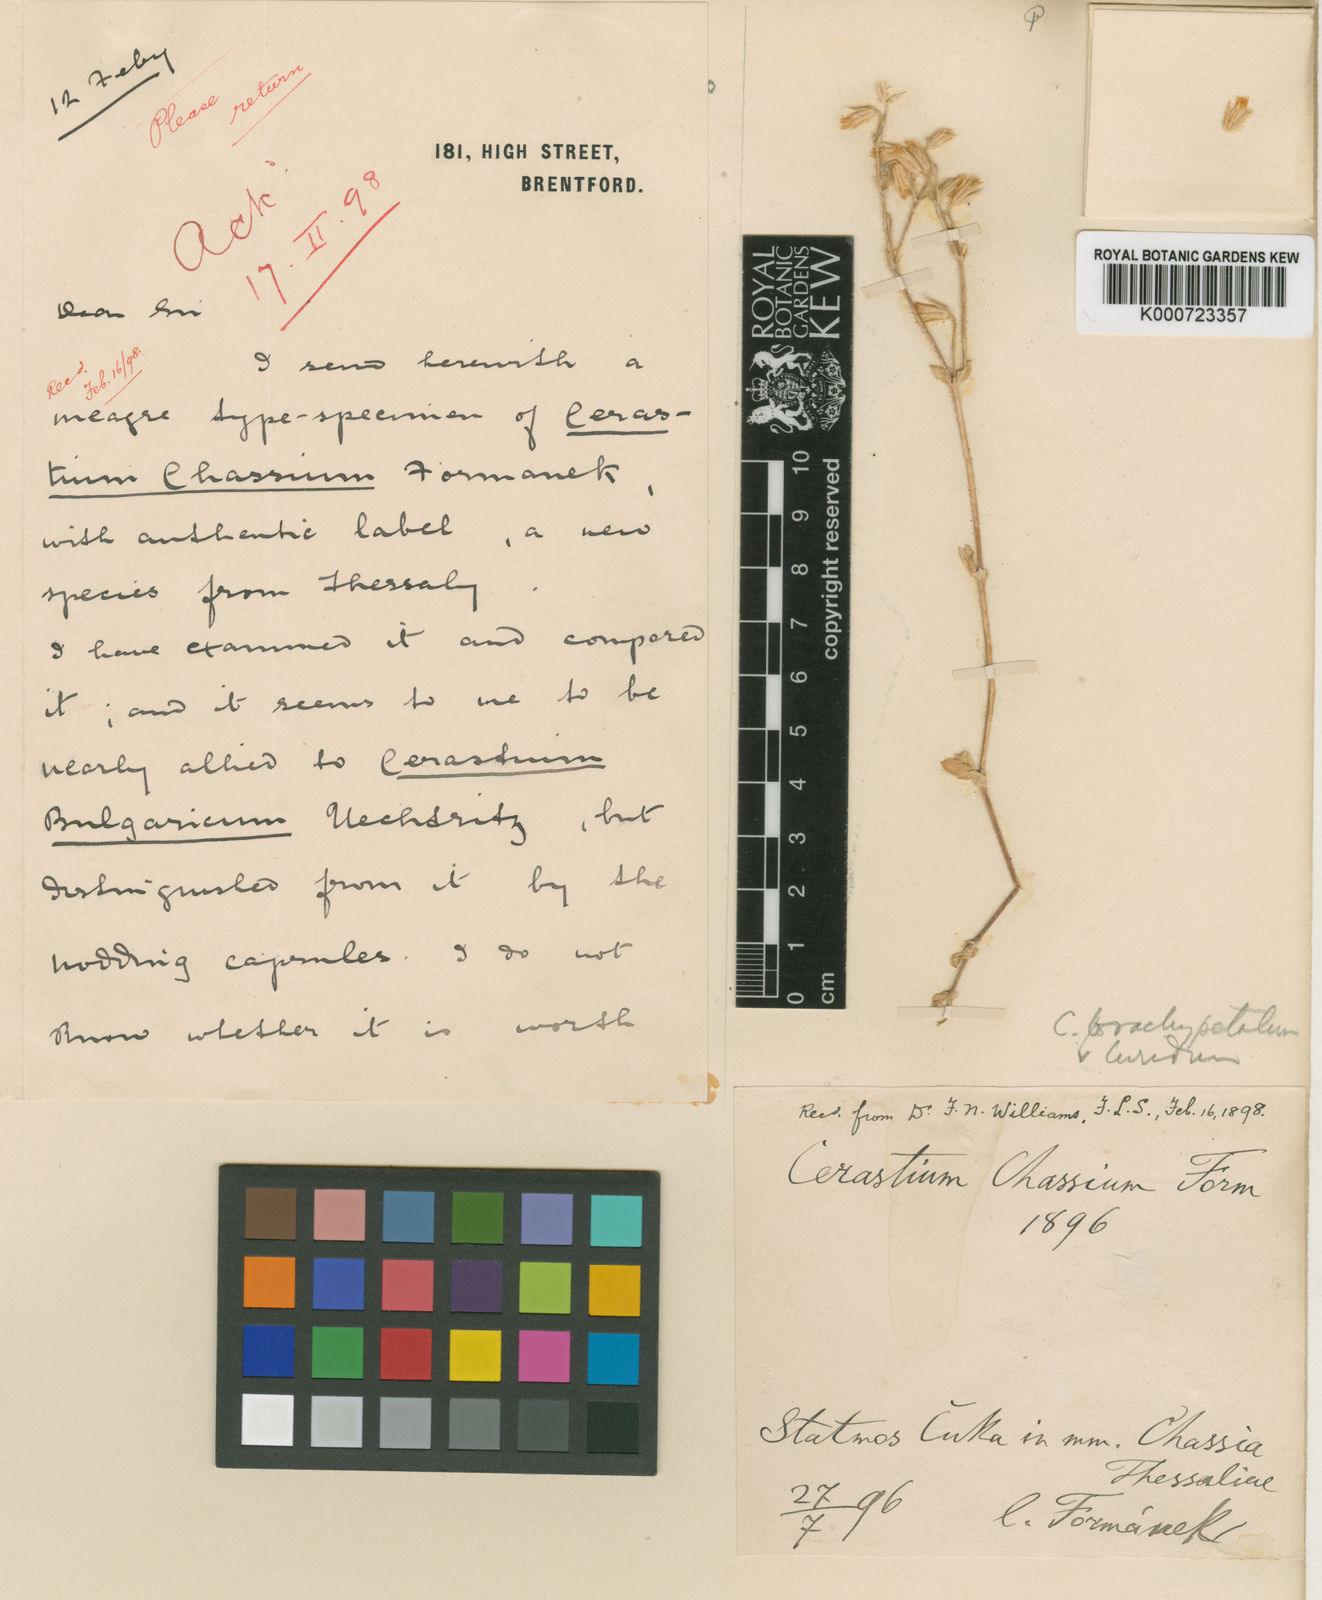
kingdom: Plantae
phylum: Tracheophyta
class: Magnoliopsida
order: Caryophyllales
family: Caryophyllaceae
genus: Cerastium
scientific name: Cerastium
